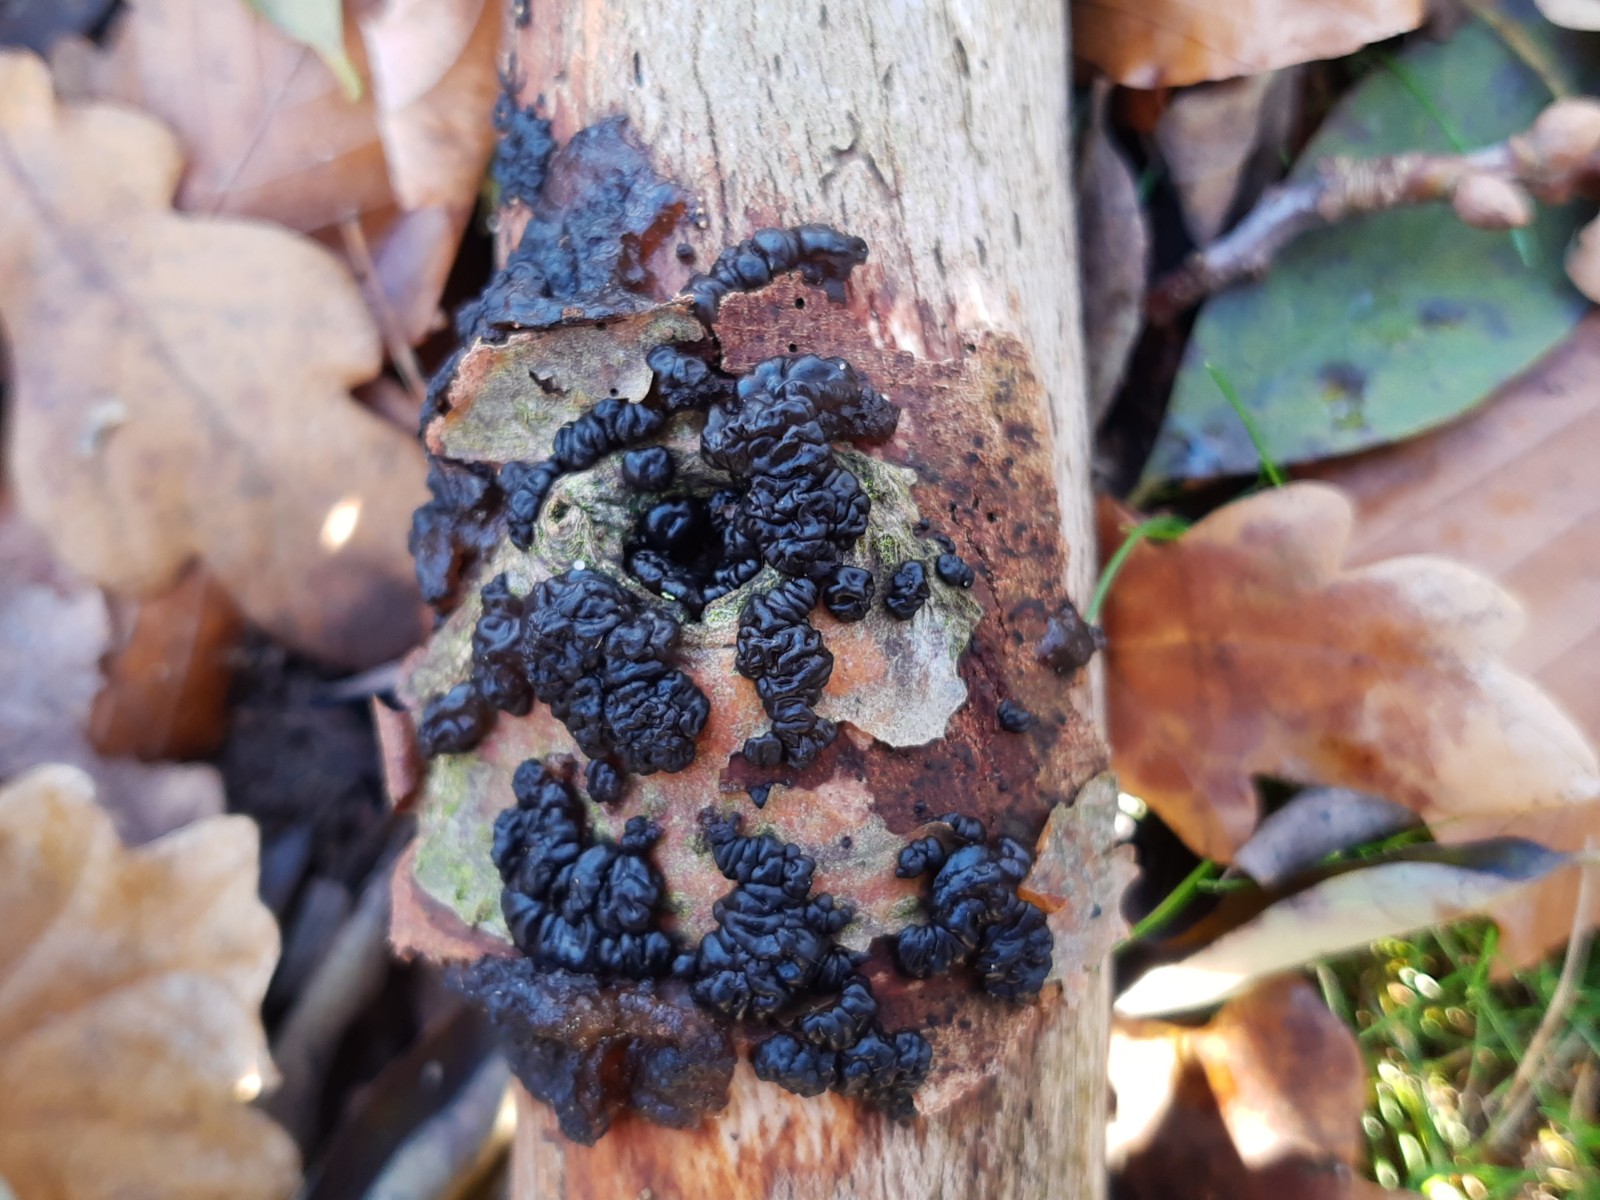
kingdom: Fungi
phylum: Basidiomycota
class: Agaricomycetes
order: Auriculariales
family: Auriculariaceae
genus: Exidia
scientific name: Exidia nigricans
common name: almindelig bævretop
